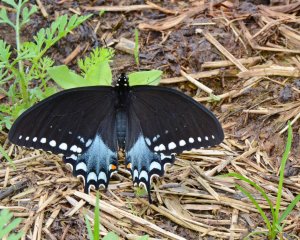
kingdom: Animalia
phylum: Arthropoda
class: Insecta
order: Lepidoptera
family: Papilionidae
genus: Pterourus
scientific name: Pterourus troilus
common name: Spicebush Swallowtail
